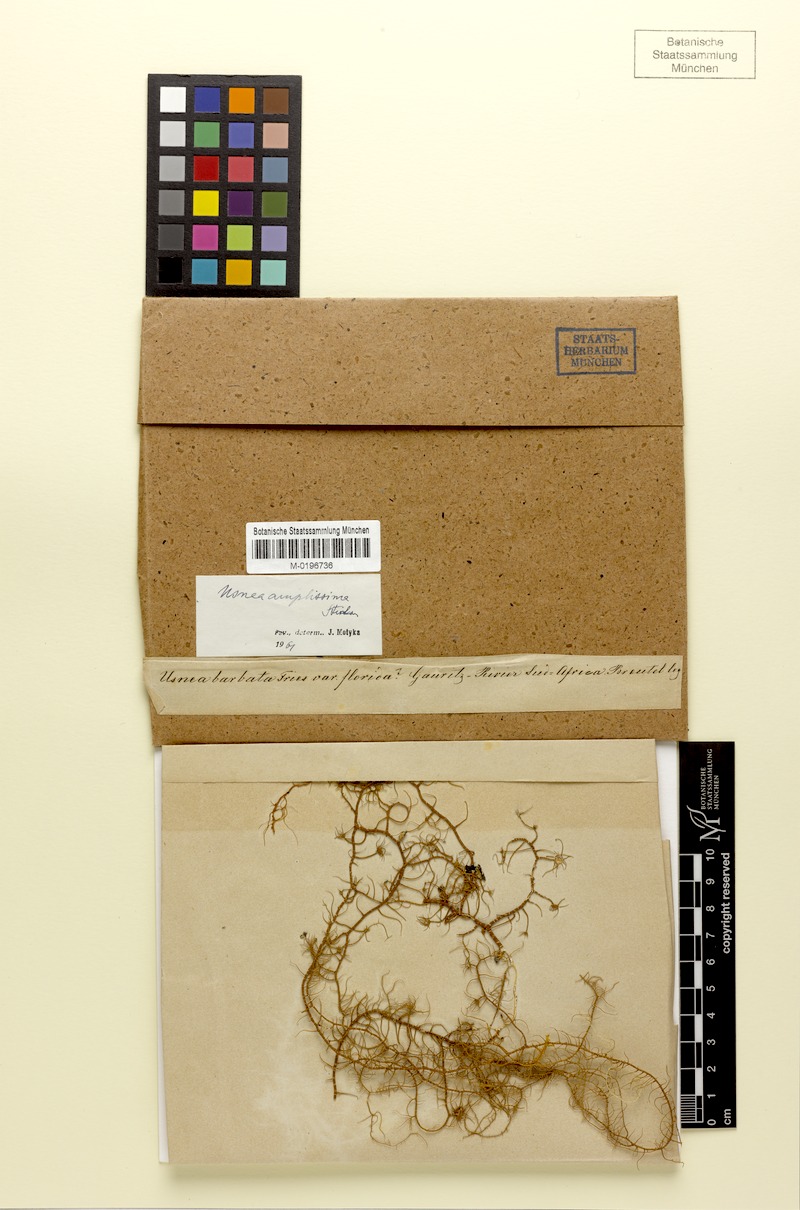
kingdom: Fungi
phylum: Ascomycota
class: Lecanoromycetes
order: Lecanorales
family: Parmeliaceae
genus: Usnea
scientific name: Usnea amplissima
